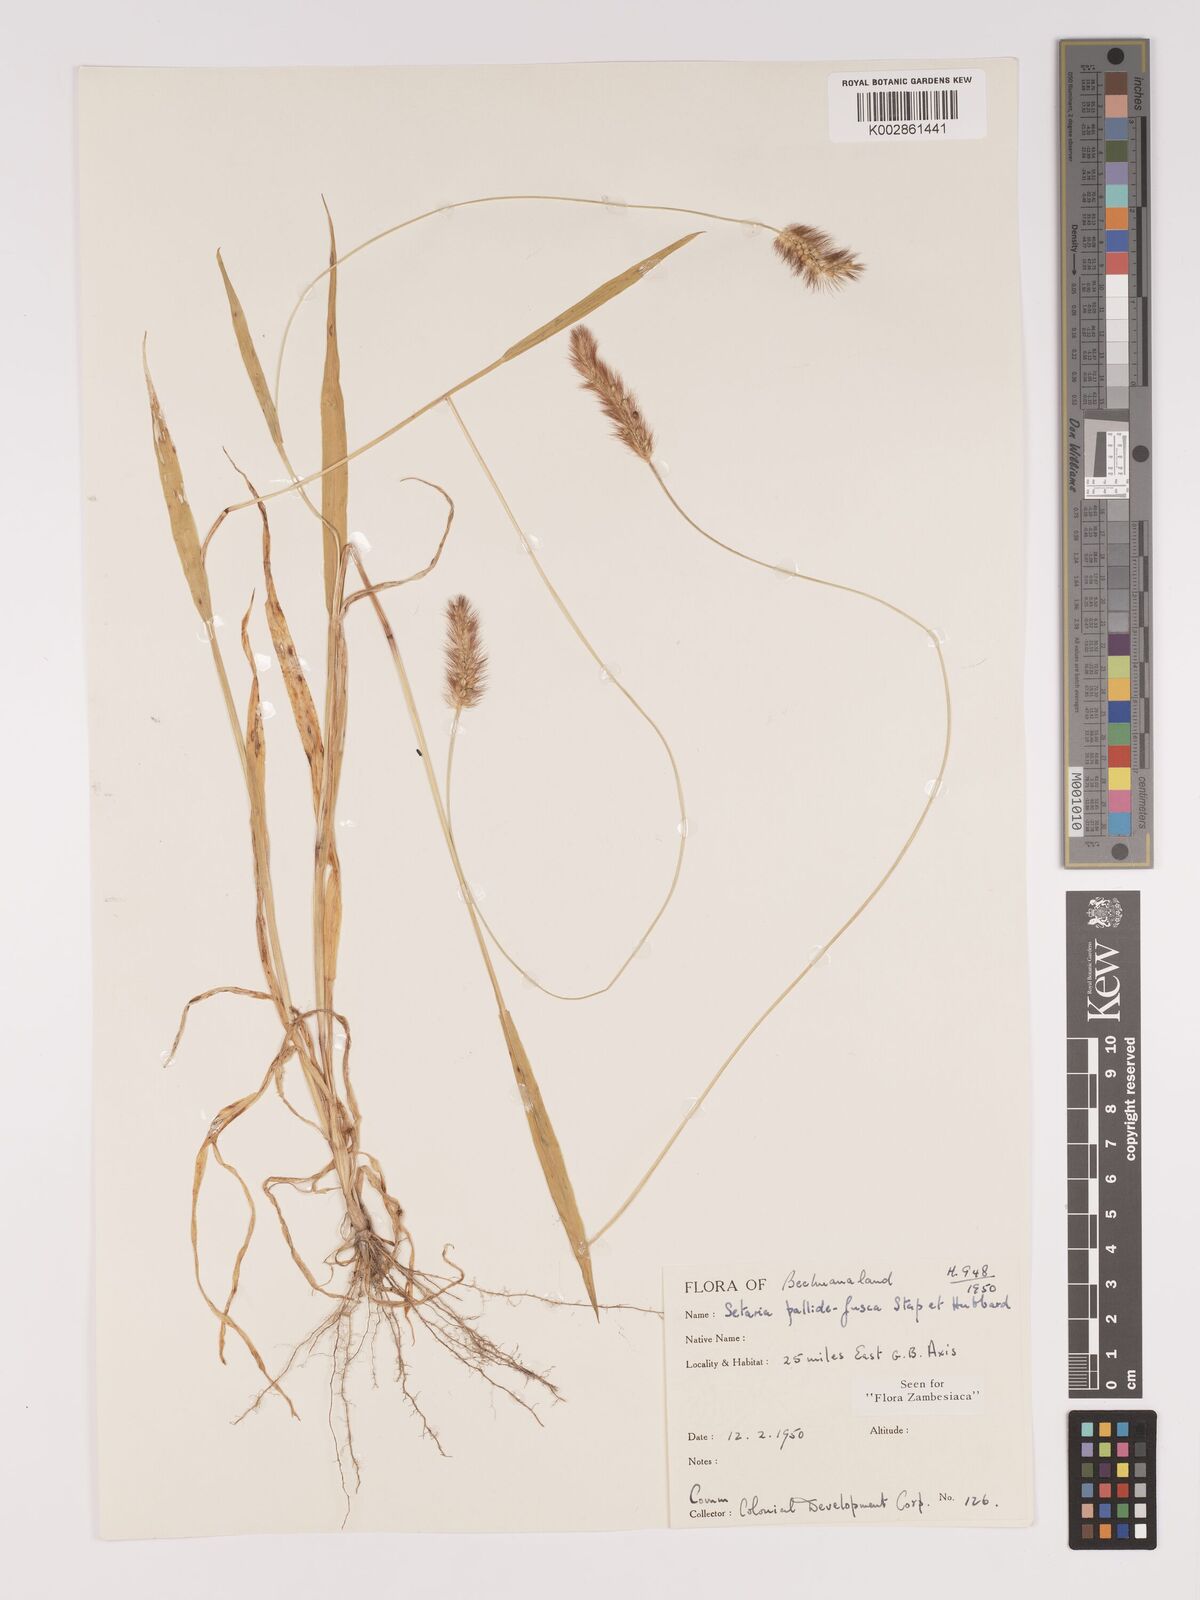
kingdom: Plantae
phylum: Tracheophyta
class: Liliopsida
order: Poales
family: Poaceae
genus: Setaria
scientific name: Setaria pumila
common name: Yellow bristle-grass
